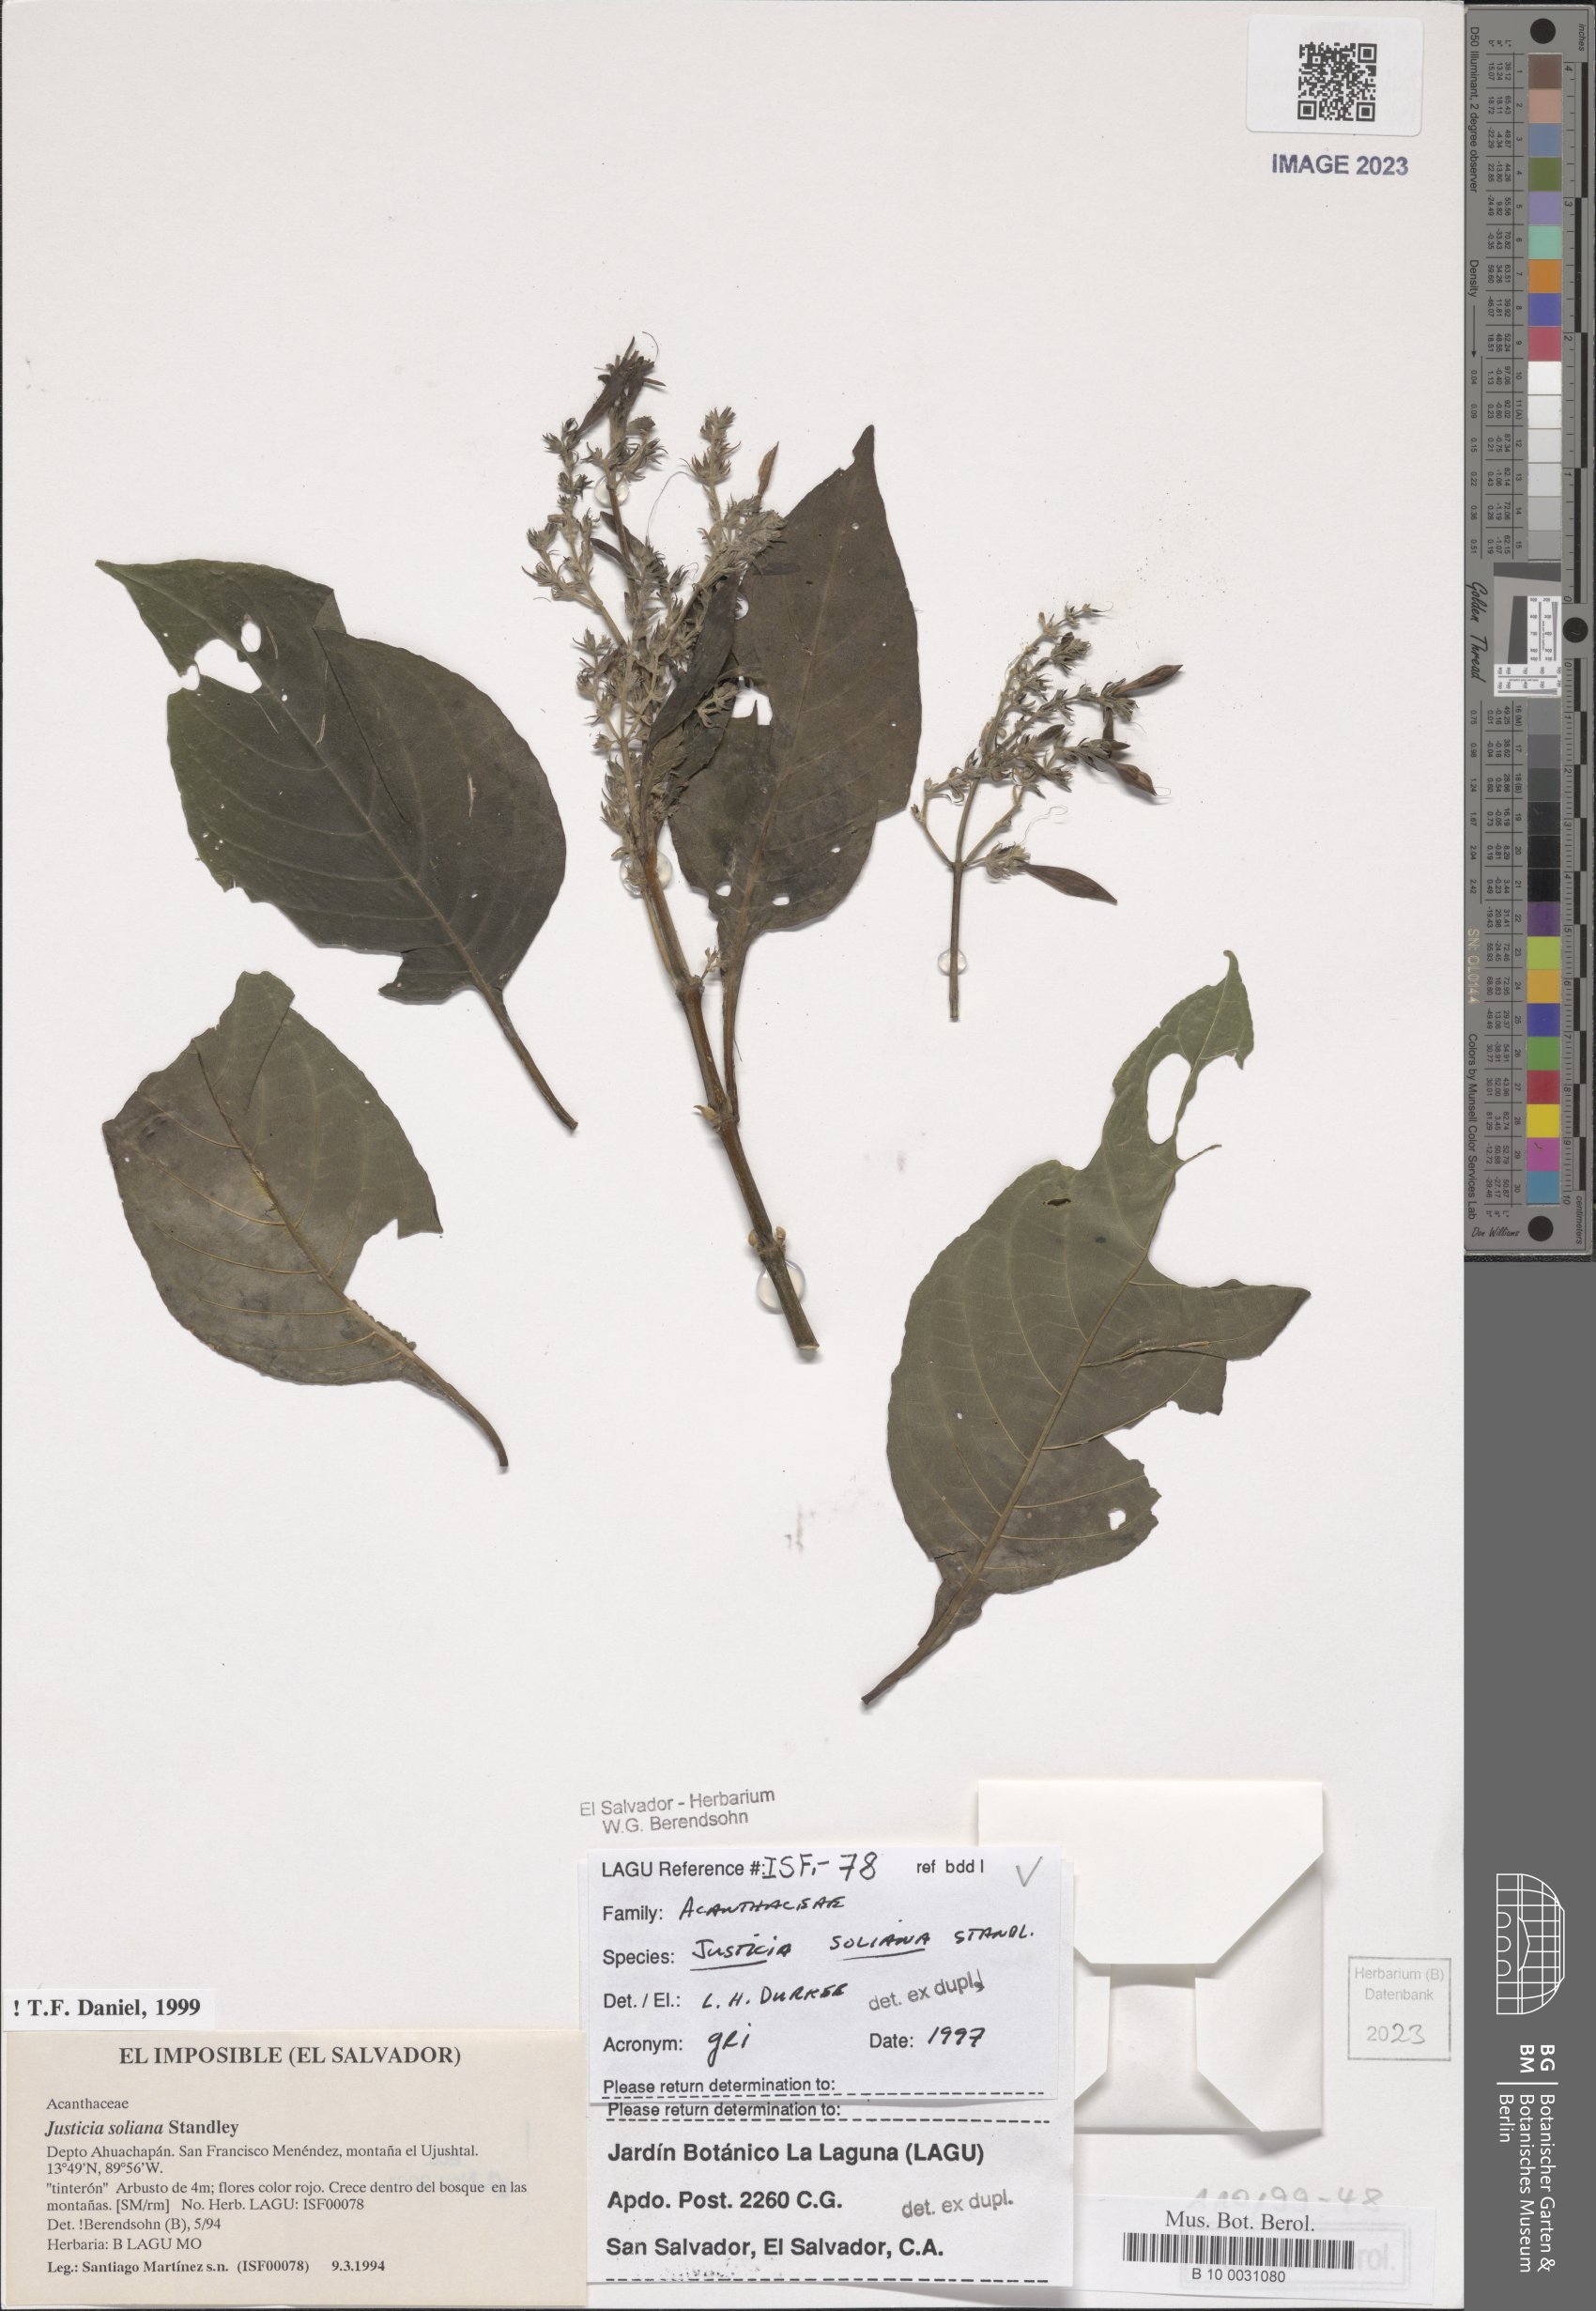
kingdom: Plantae
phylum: Tracheophyta
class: Magnoliopsida
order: Lamiales
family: Acanthaceae
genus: Justicia
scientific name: Justicia soliana
